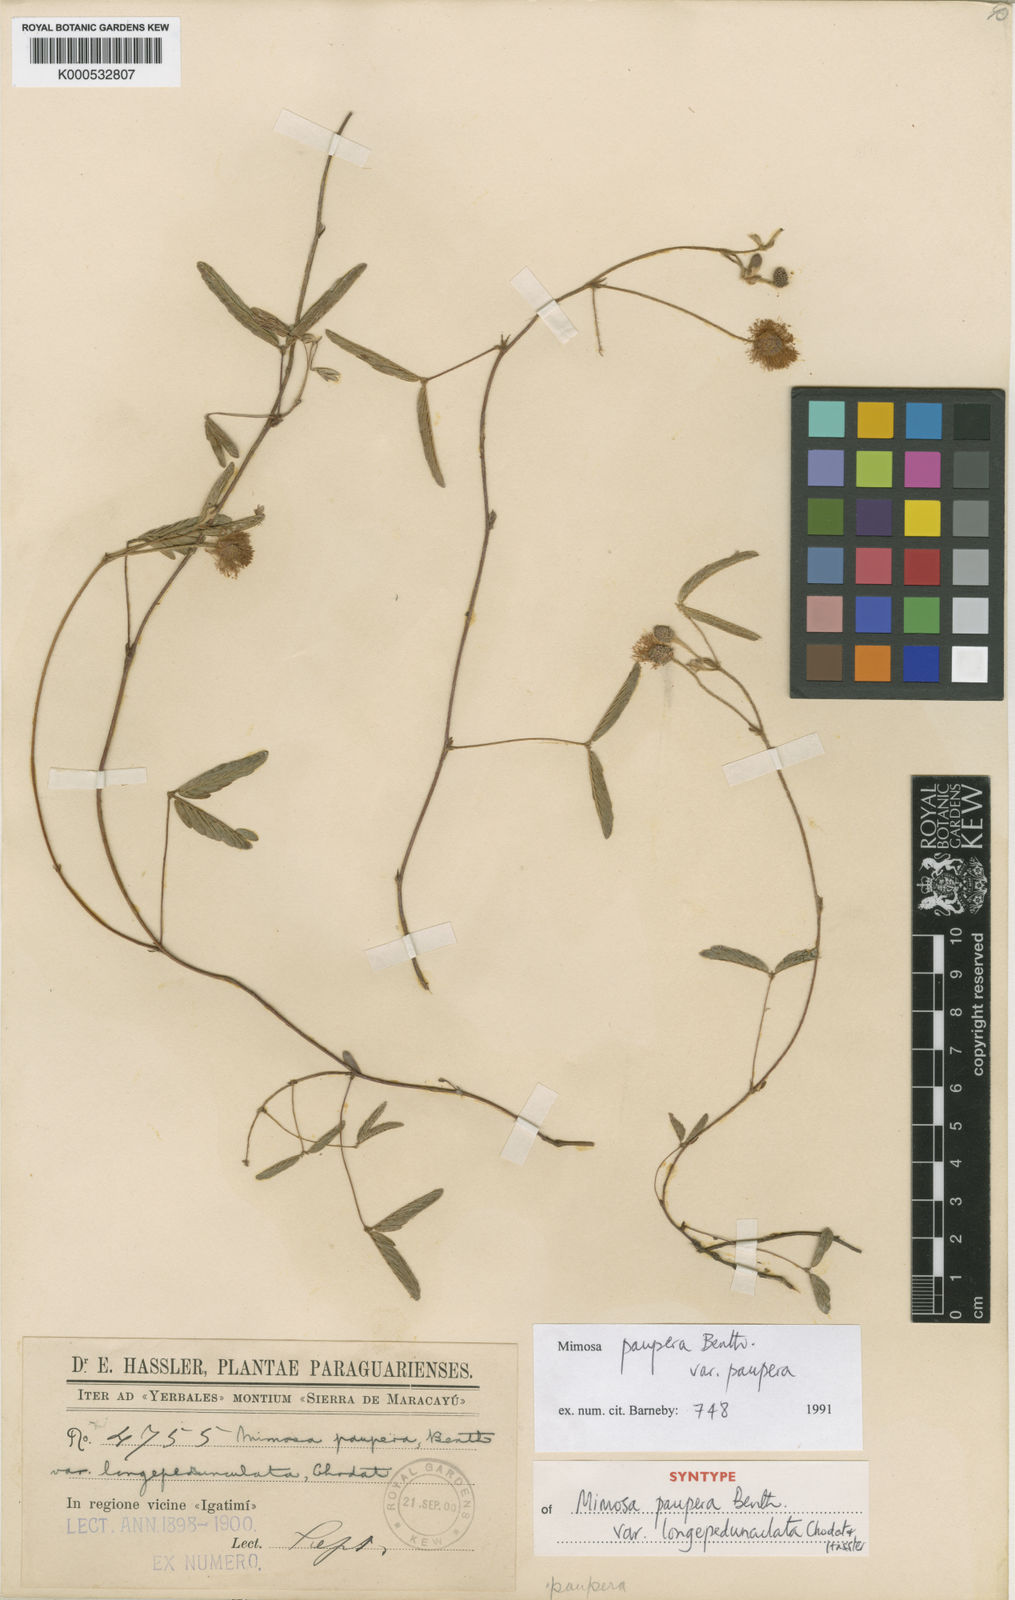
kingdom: Plantae
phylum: Tracheophyta
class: Magnoliopsida
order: Fabales
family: Fabaceae
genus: Mimosa
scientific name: Mimosa paupera
